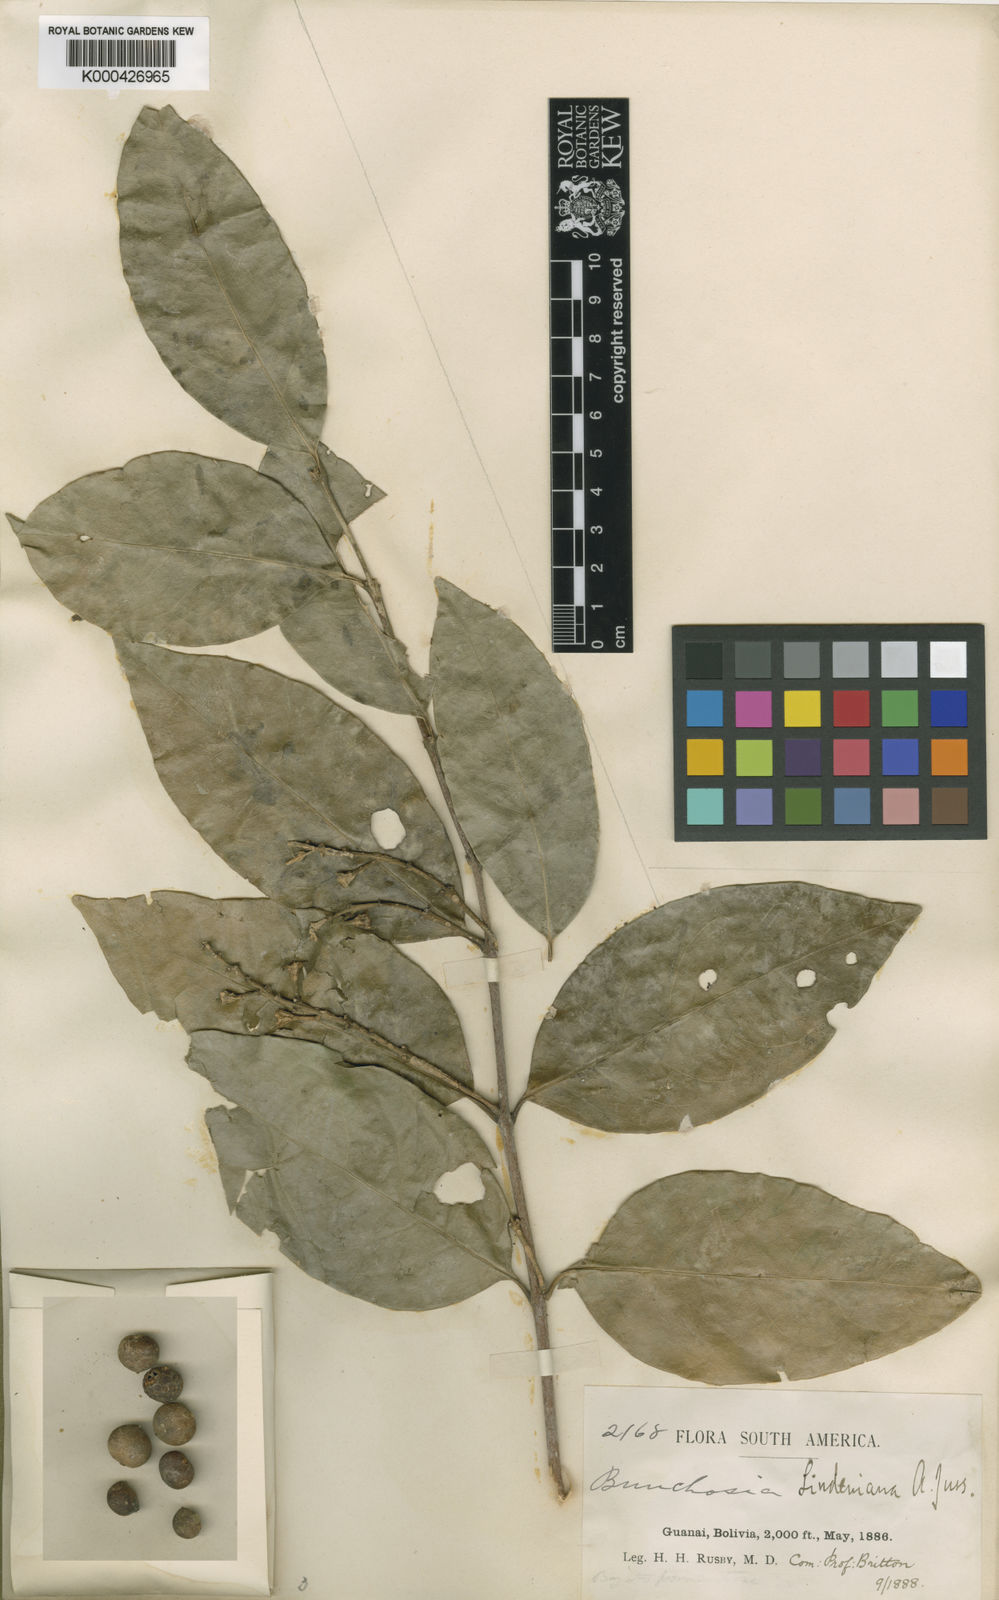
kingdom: Plantae
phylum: Tracheophyta
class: Magnoliopsida
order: Malpighiales
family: Malpighiaceae
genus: Bunchosia
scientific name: Bunchosia lindeniana
